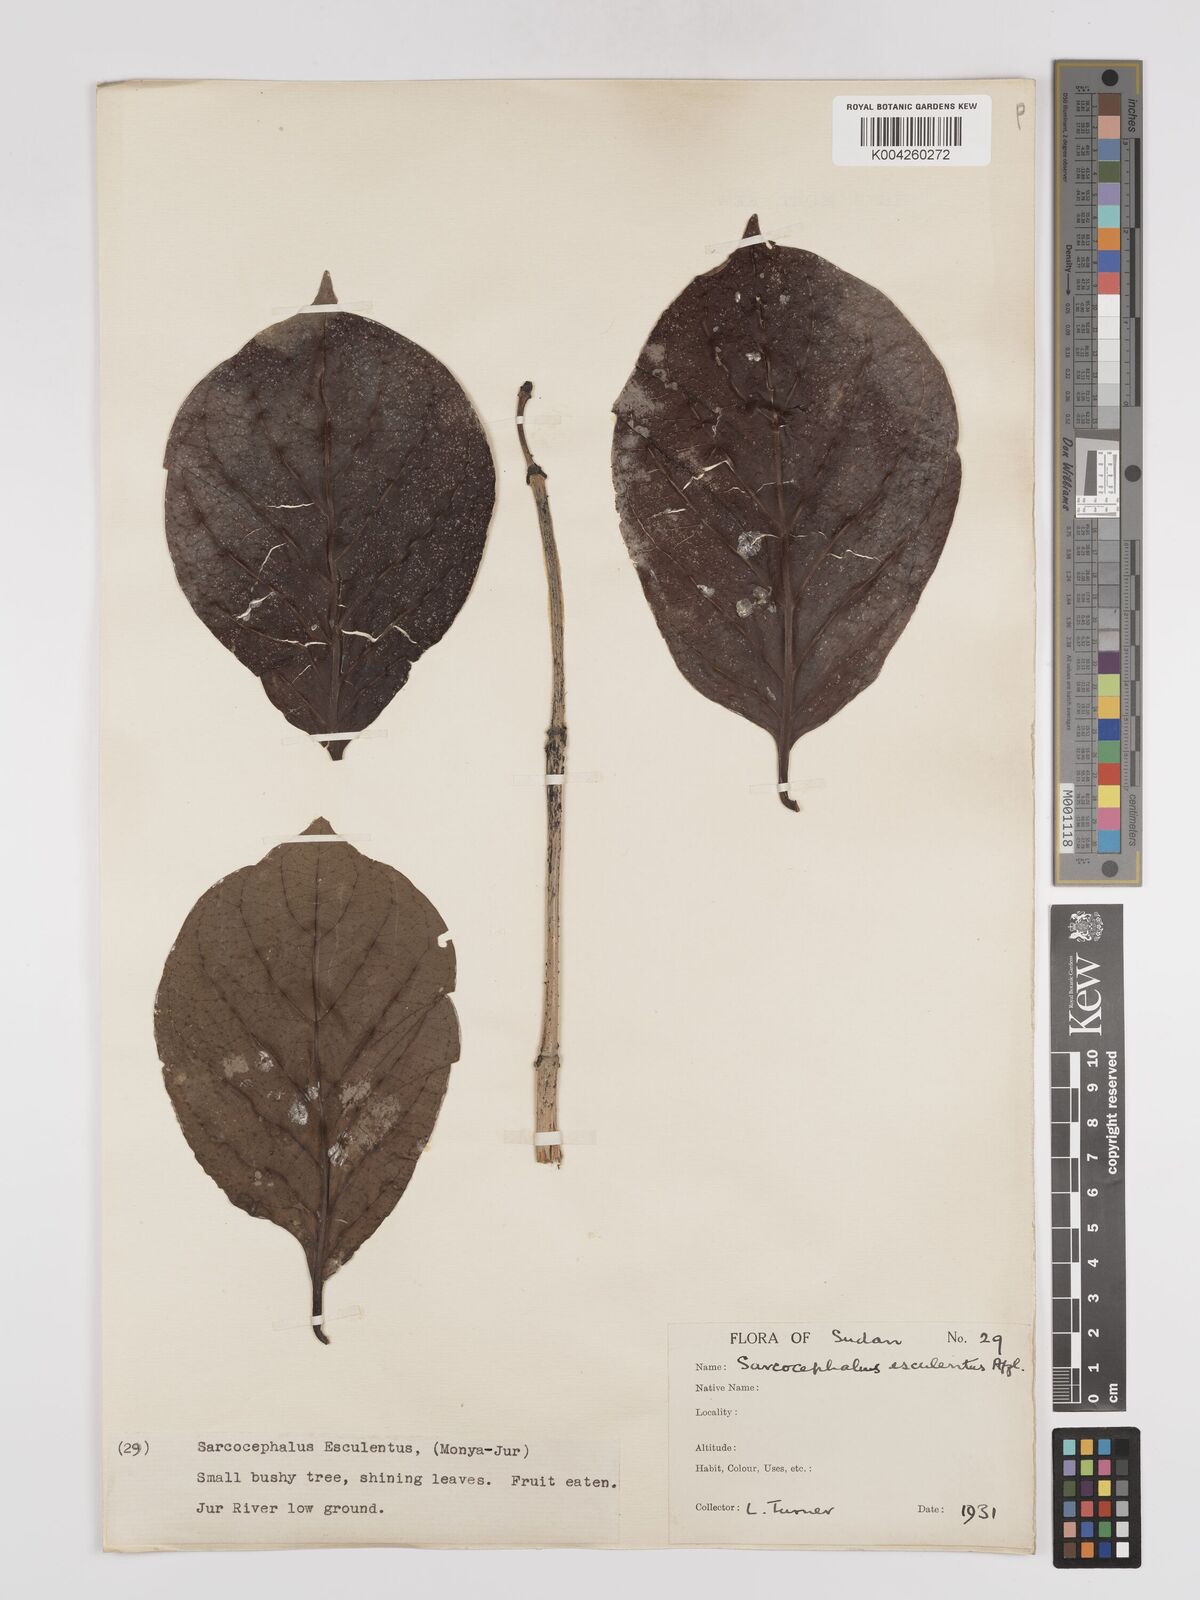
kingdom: Plantae
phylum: Tracheophyta
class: Magnoliopsida
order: Gentianales
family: Rubiaceae
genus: Nauclea
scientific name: Nauclea
